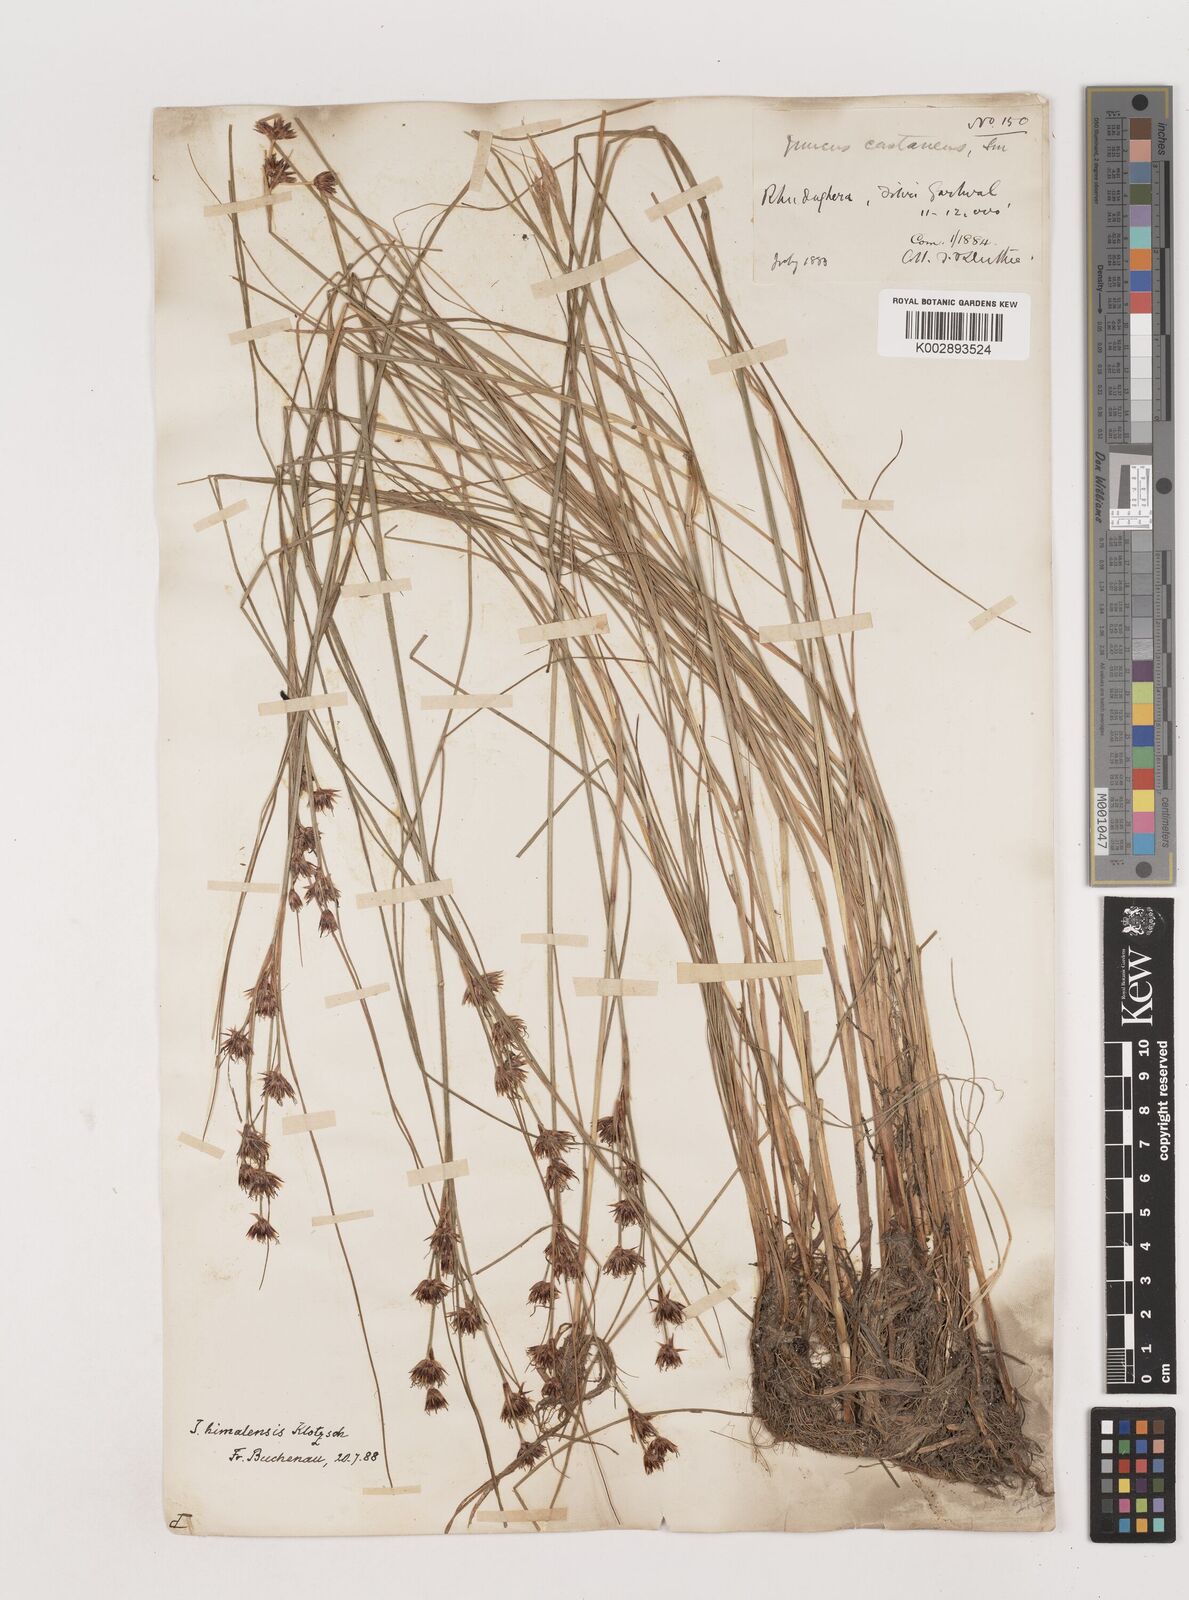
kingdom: Plantae
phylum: Tracheophyta
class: Liliopsida
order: Poales
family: Juncaceae
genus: Juncus
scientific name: Juncus himalensis
